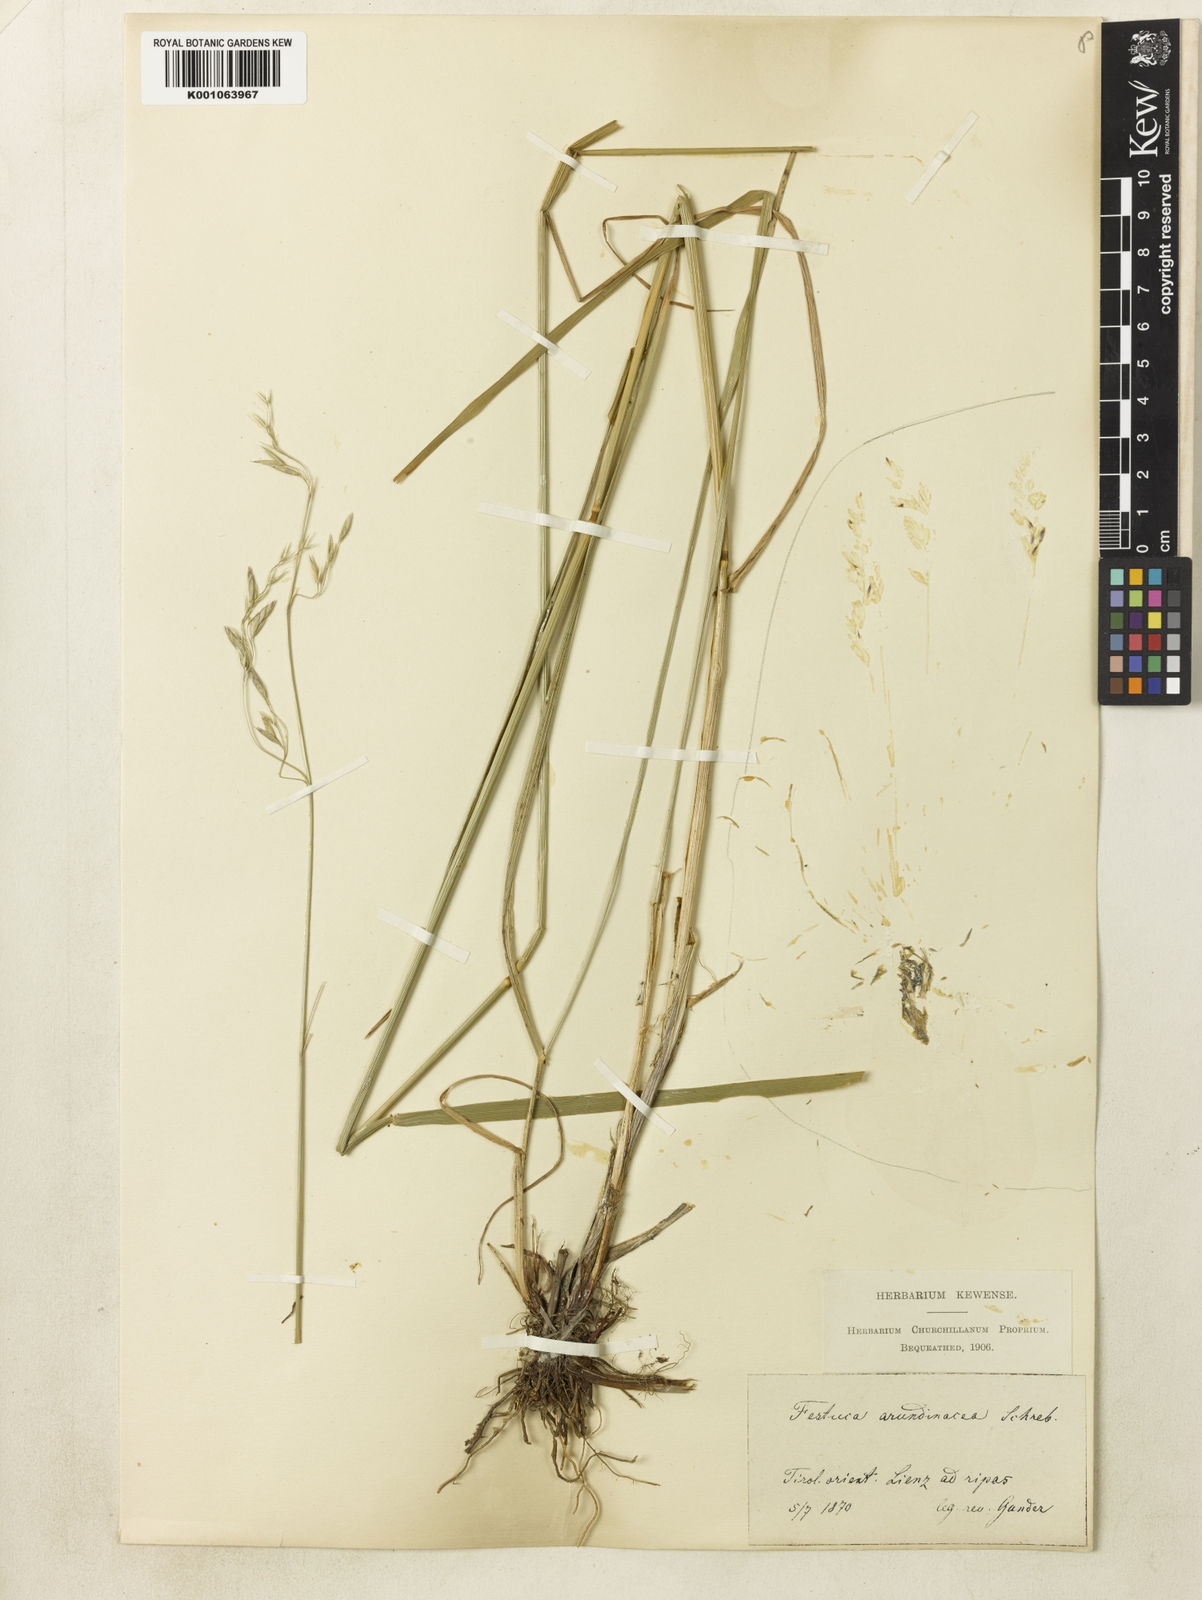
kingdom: Plantae
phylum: Tracheophyta
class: Liliopsida
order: Poales
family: Poaceae
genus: Lolium
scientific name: Lolium arundinaceum
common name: Reed fescue
